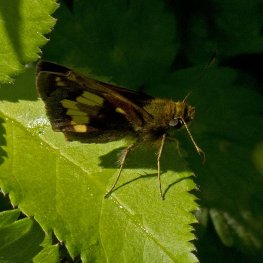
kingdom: Animalia
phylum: Arthropoda
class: Insecta
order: Lepidoptera
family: Hesperiidae
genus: Lon
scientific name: Lon hobomok
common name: Hobomok Skipper
